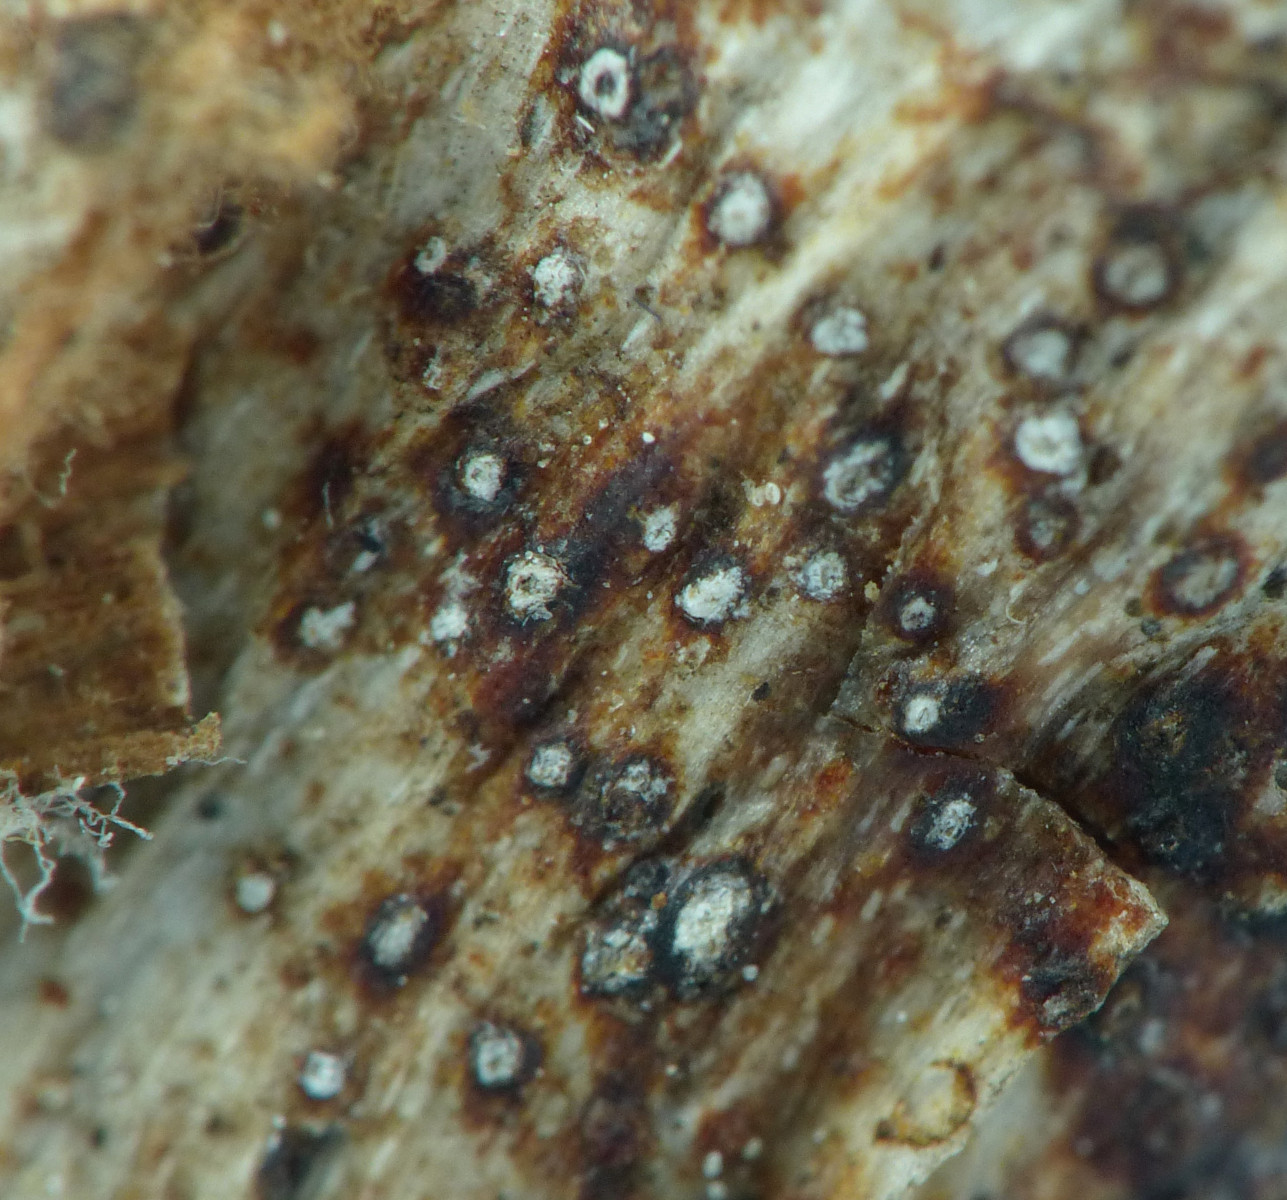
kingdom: Fungi
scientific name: Fungi
